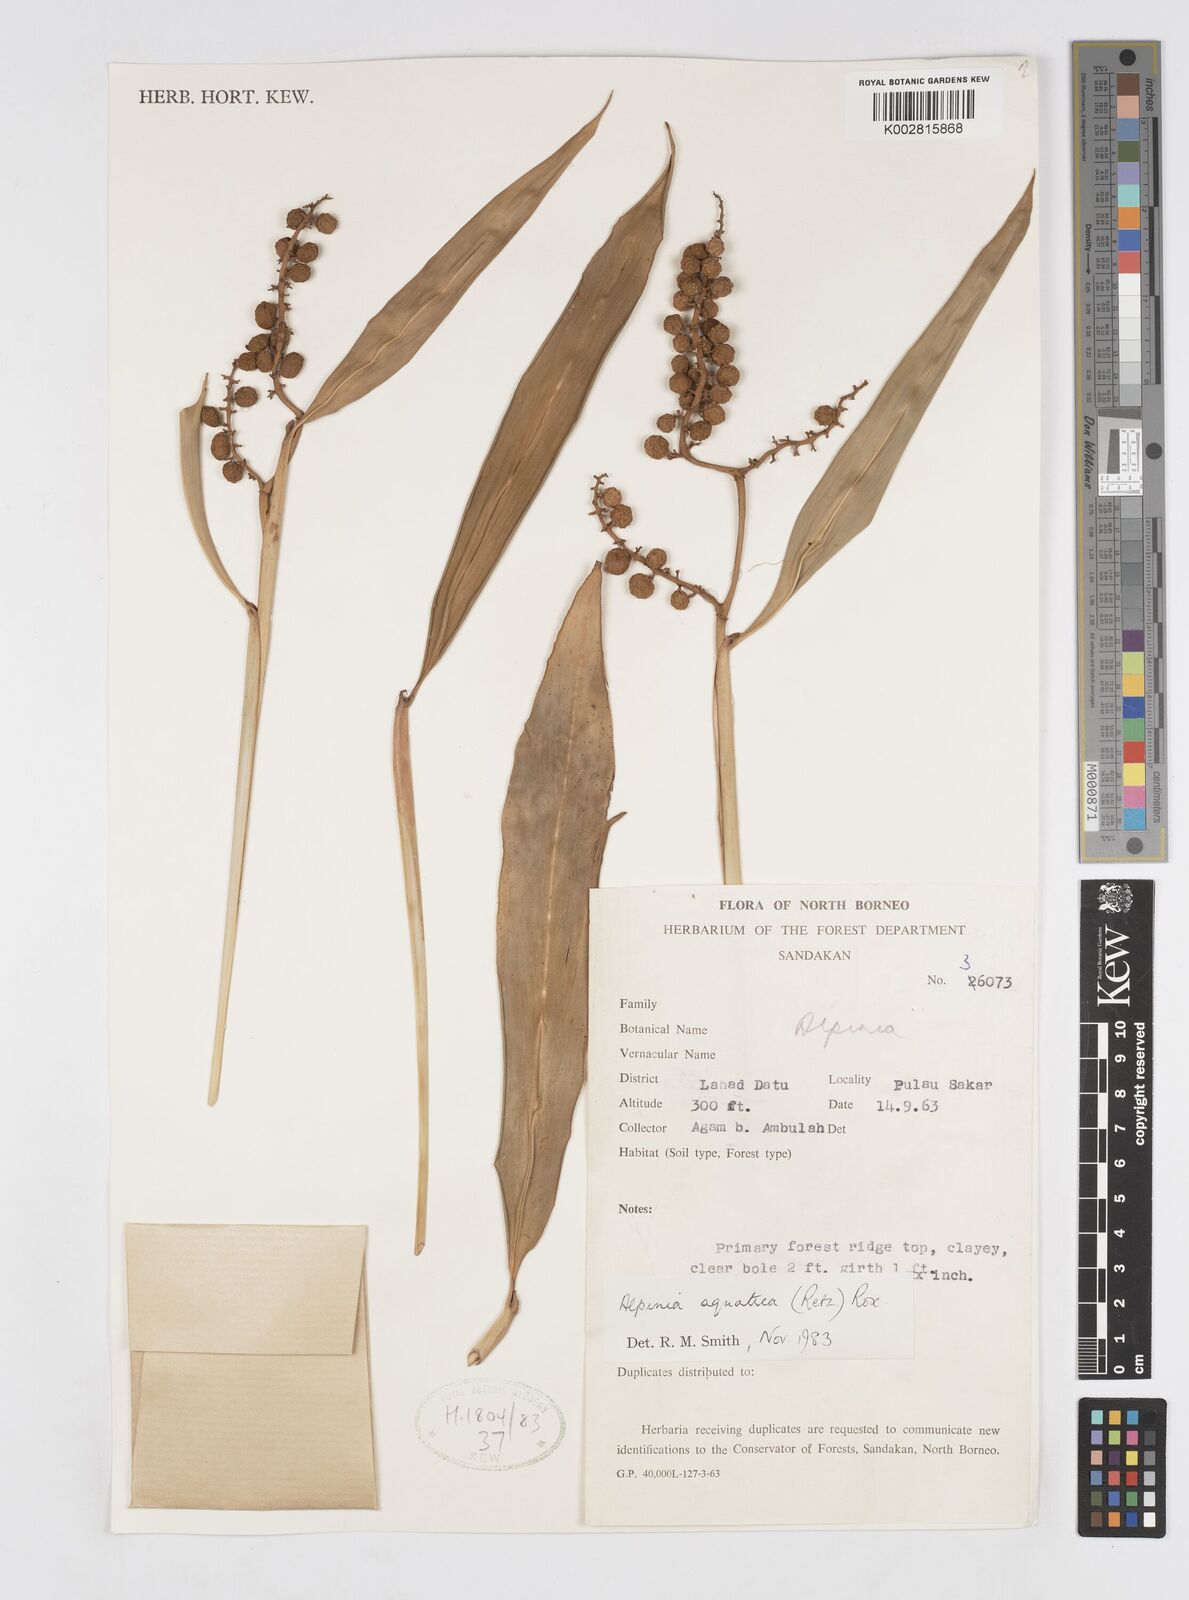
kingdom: Plantae
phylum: Tracheophyta
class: Liliopsida
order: Zingiberales
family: Zingiberaceae
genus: Alpinia
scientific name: Alpinia aquatica
